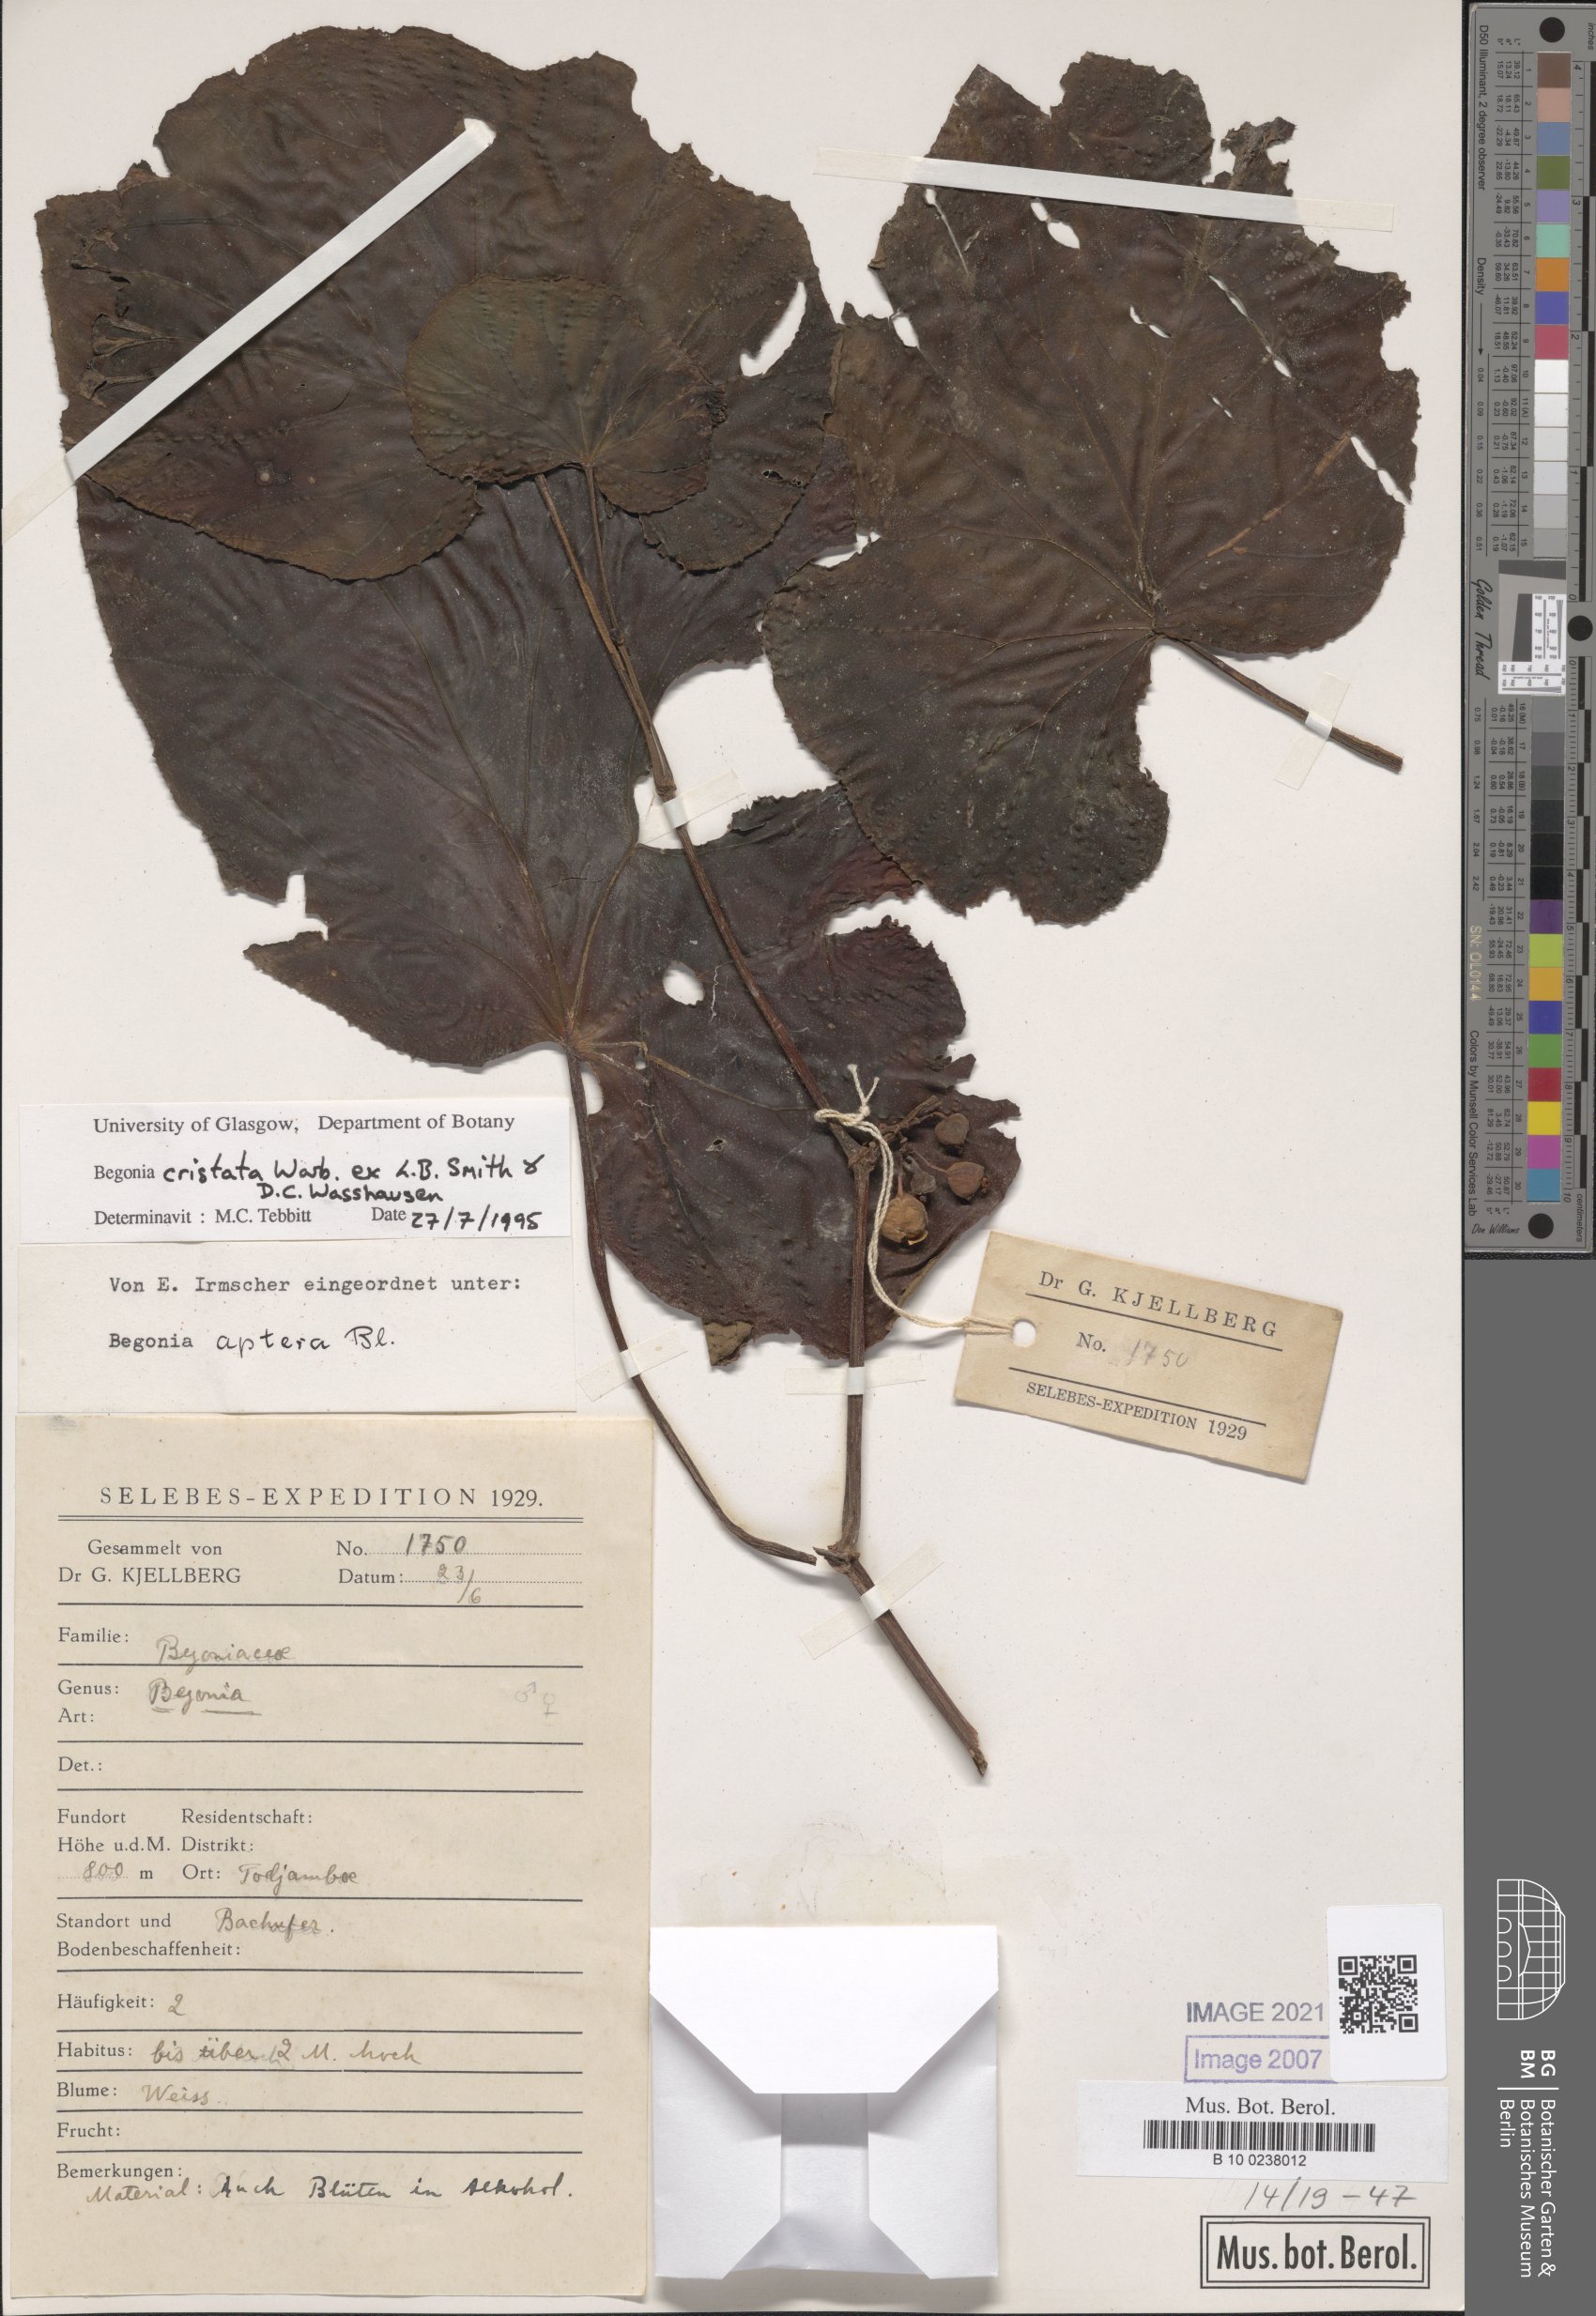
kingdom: Plantae
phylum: Tracheophyta
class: Magnoliopsida
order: Cucurbitales
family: Begoniaceae
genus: Begonia
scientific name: Begonia aptera
